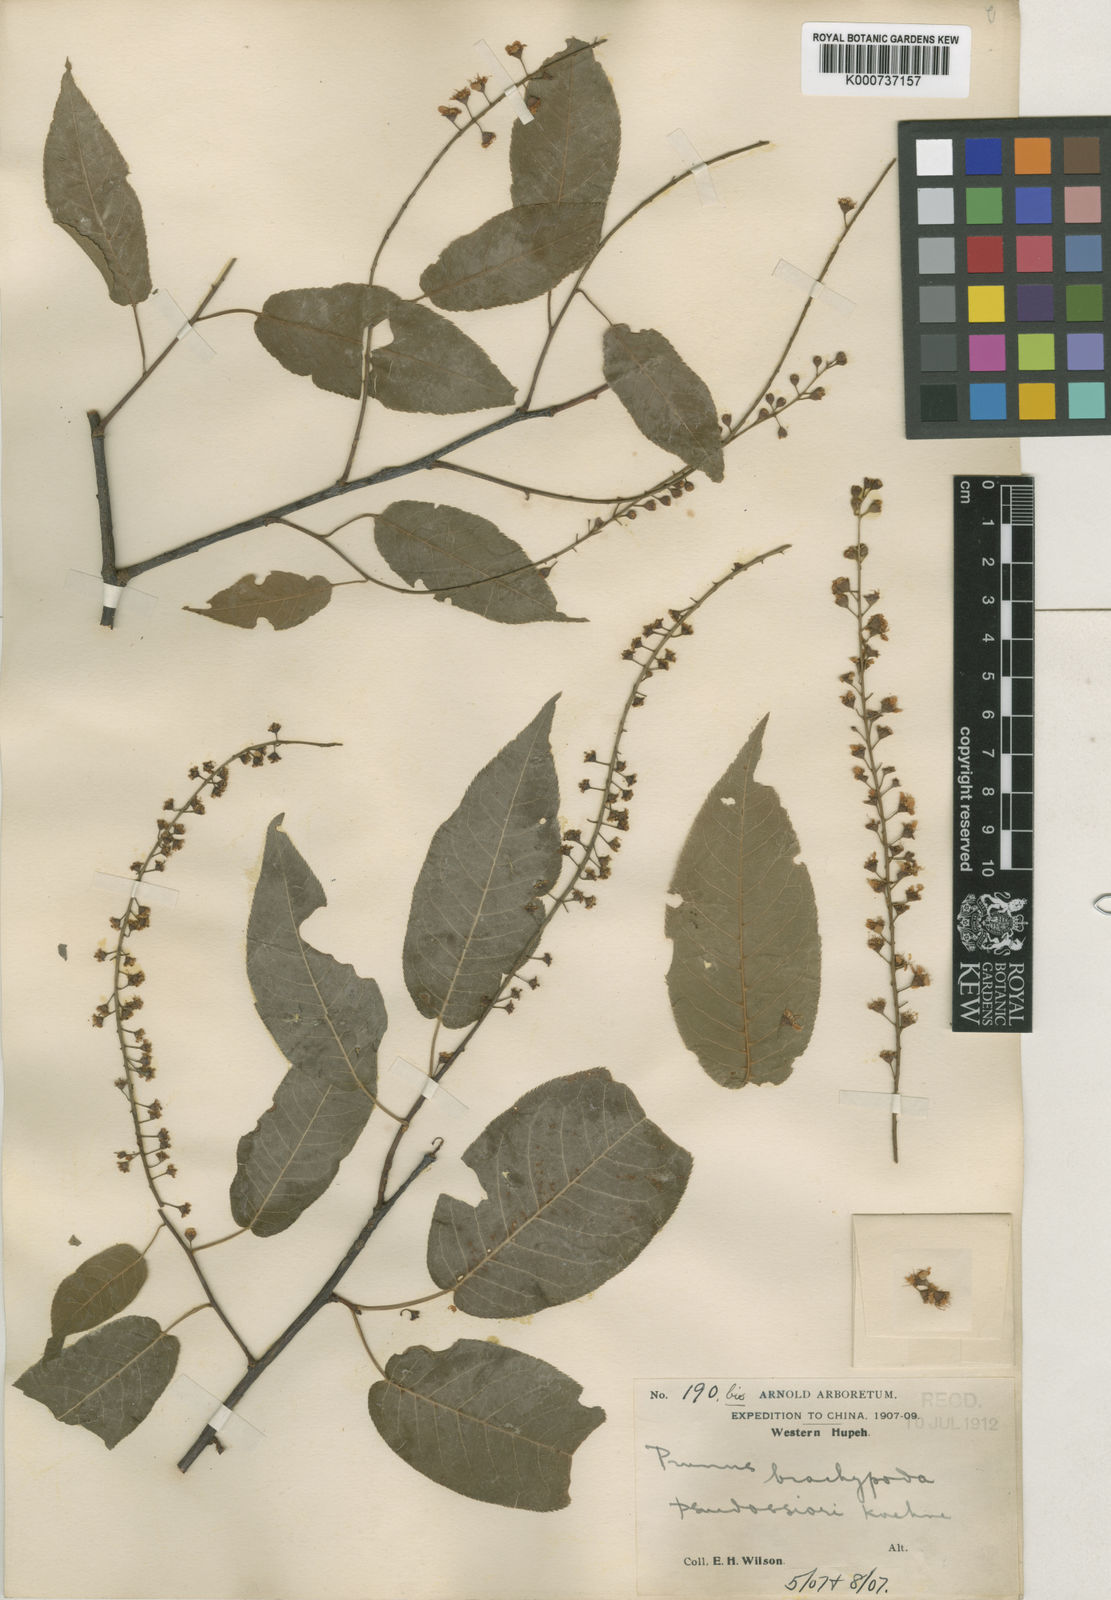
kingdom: Plantae
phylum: Tracheophyta
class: Magnoliopsida
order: Rosales
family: Rosaceae
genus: Prunus
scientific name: Prunus brachypoda
